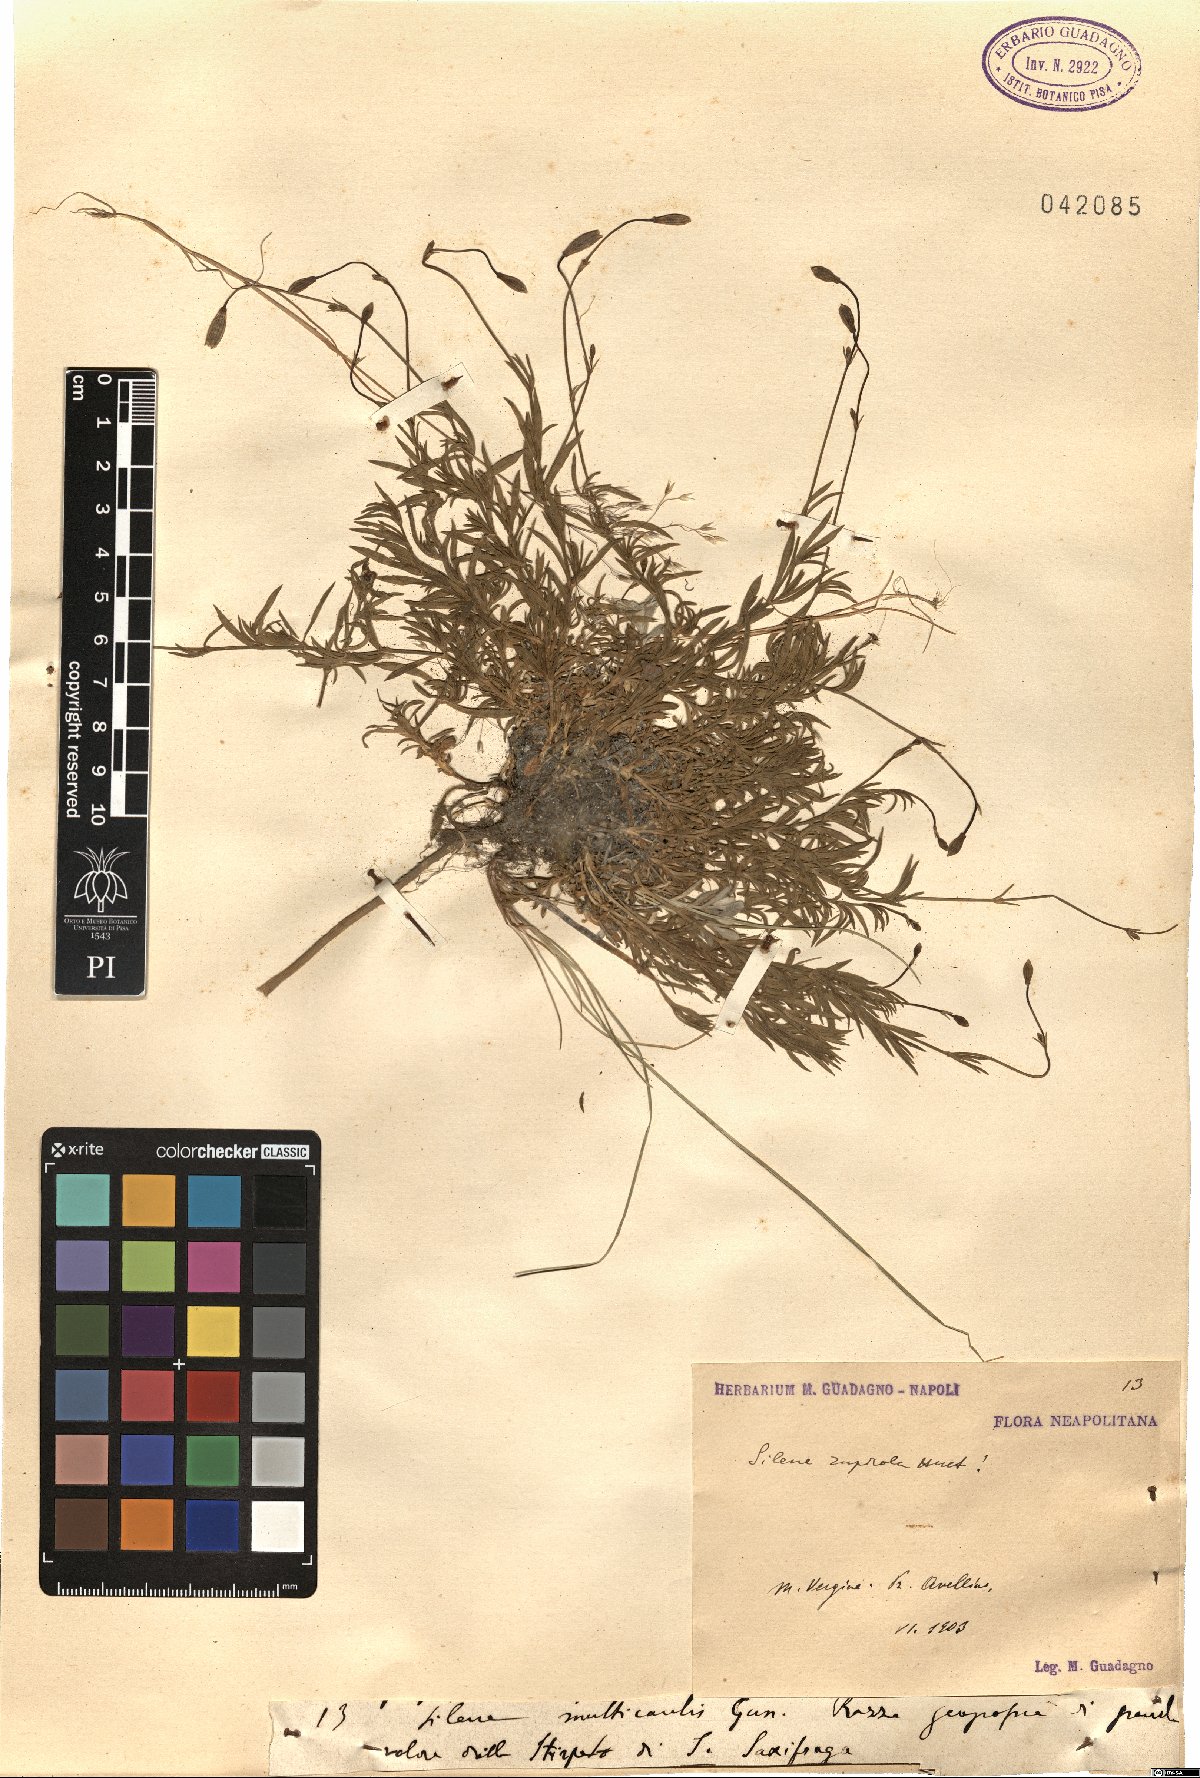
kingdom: Plantae
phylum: Tracheophyta
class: Magnoliopsida
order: Caryophyllales
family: Caryophyllaceae
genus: Silene
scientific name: Silene saxifraga
